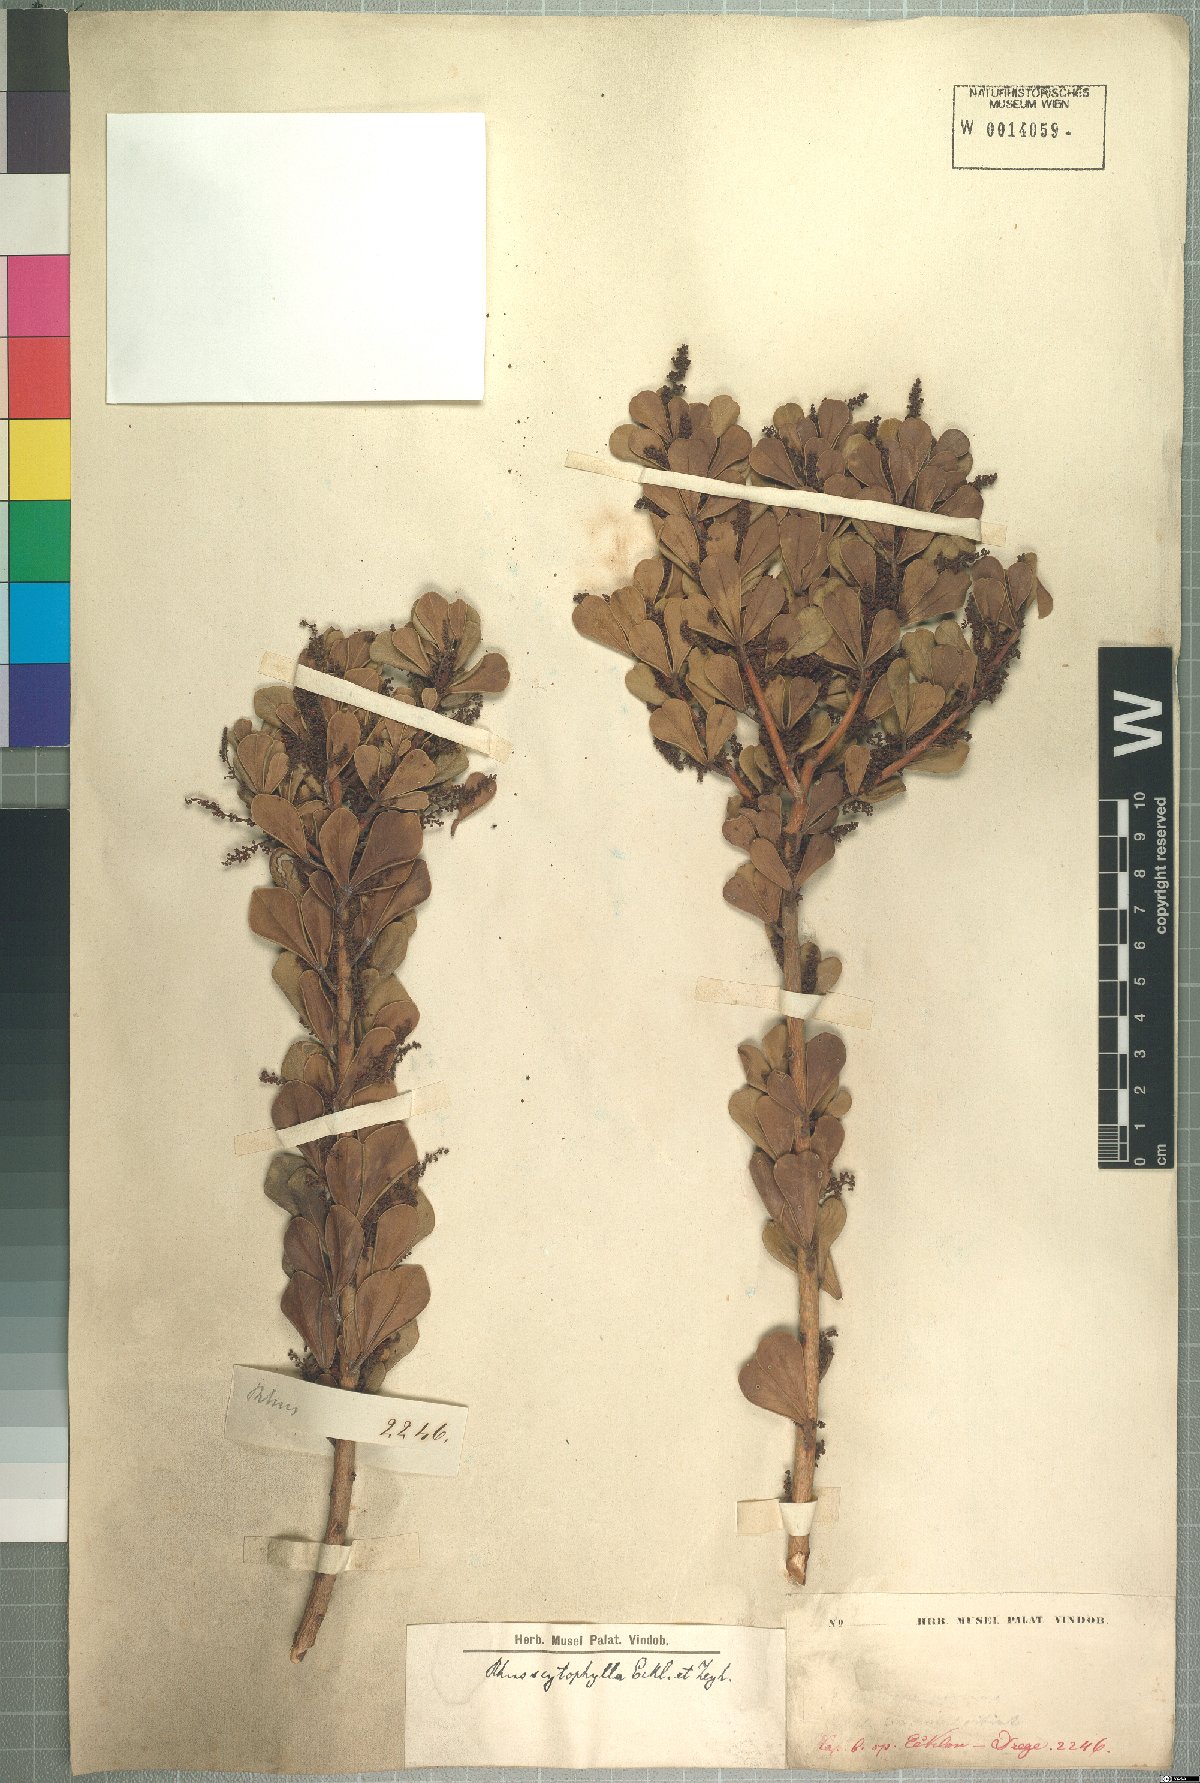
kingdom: Plantae
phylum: Tracheophyta
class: Magnoliopsida
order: Sapindales
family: Anacardiaceae
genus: Searsia
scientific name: Searsia scytophylla
